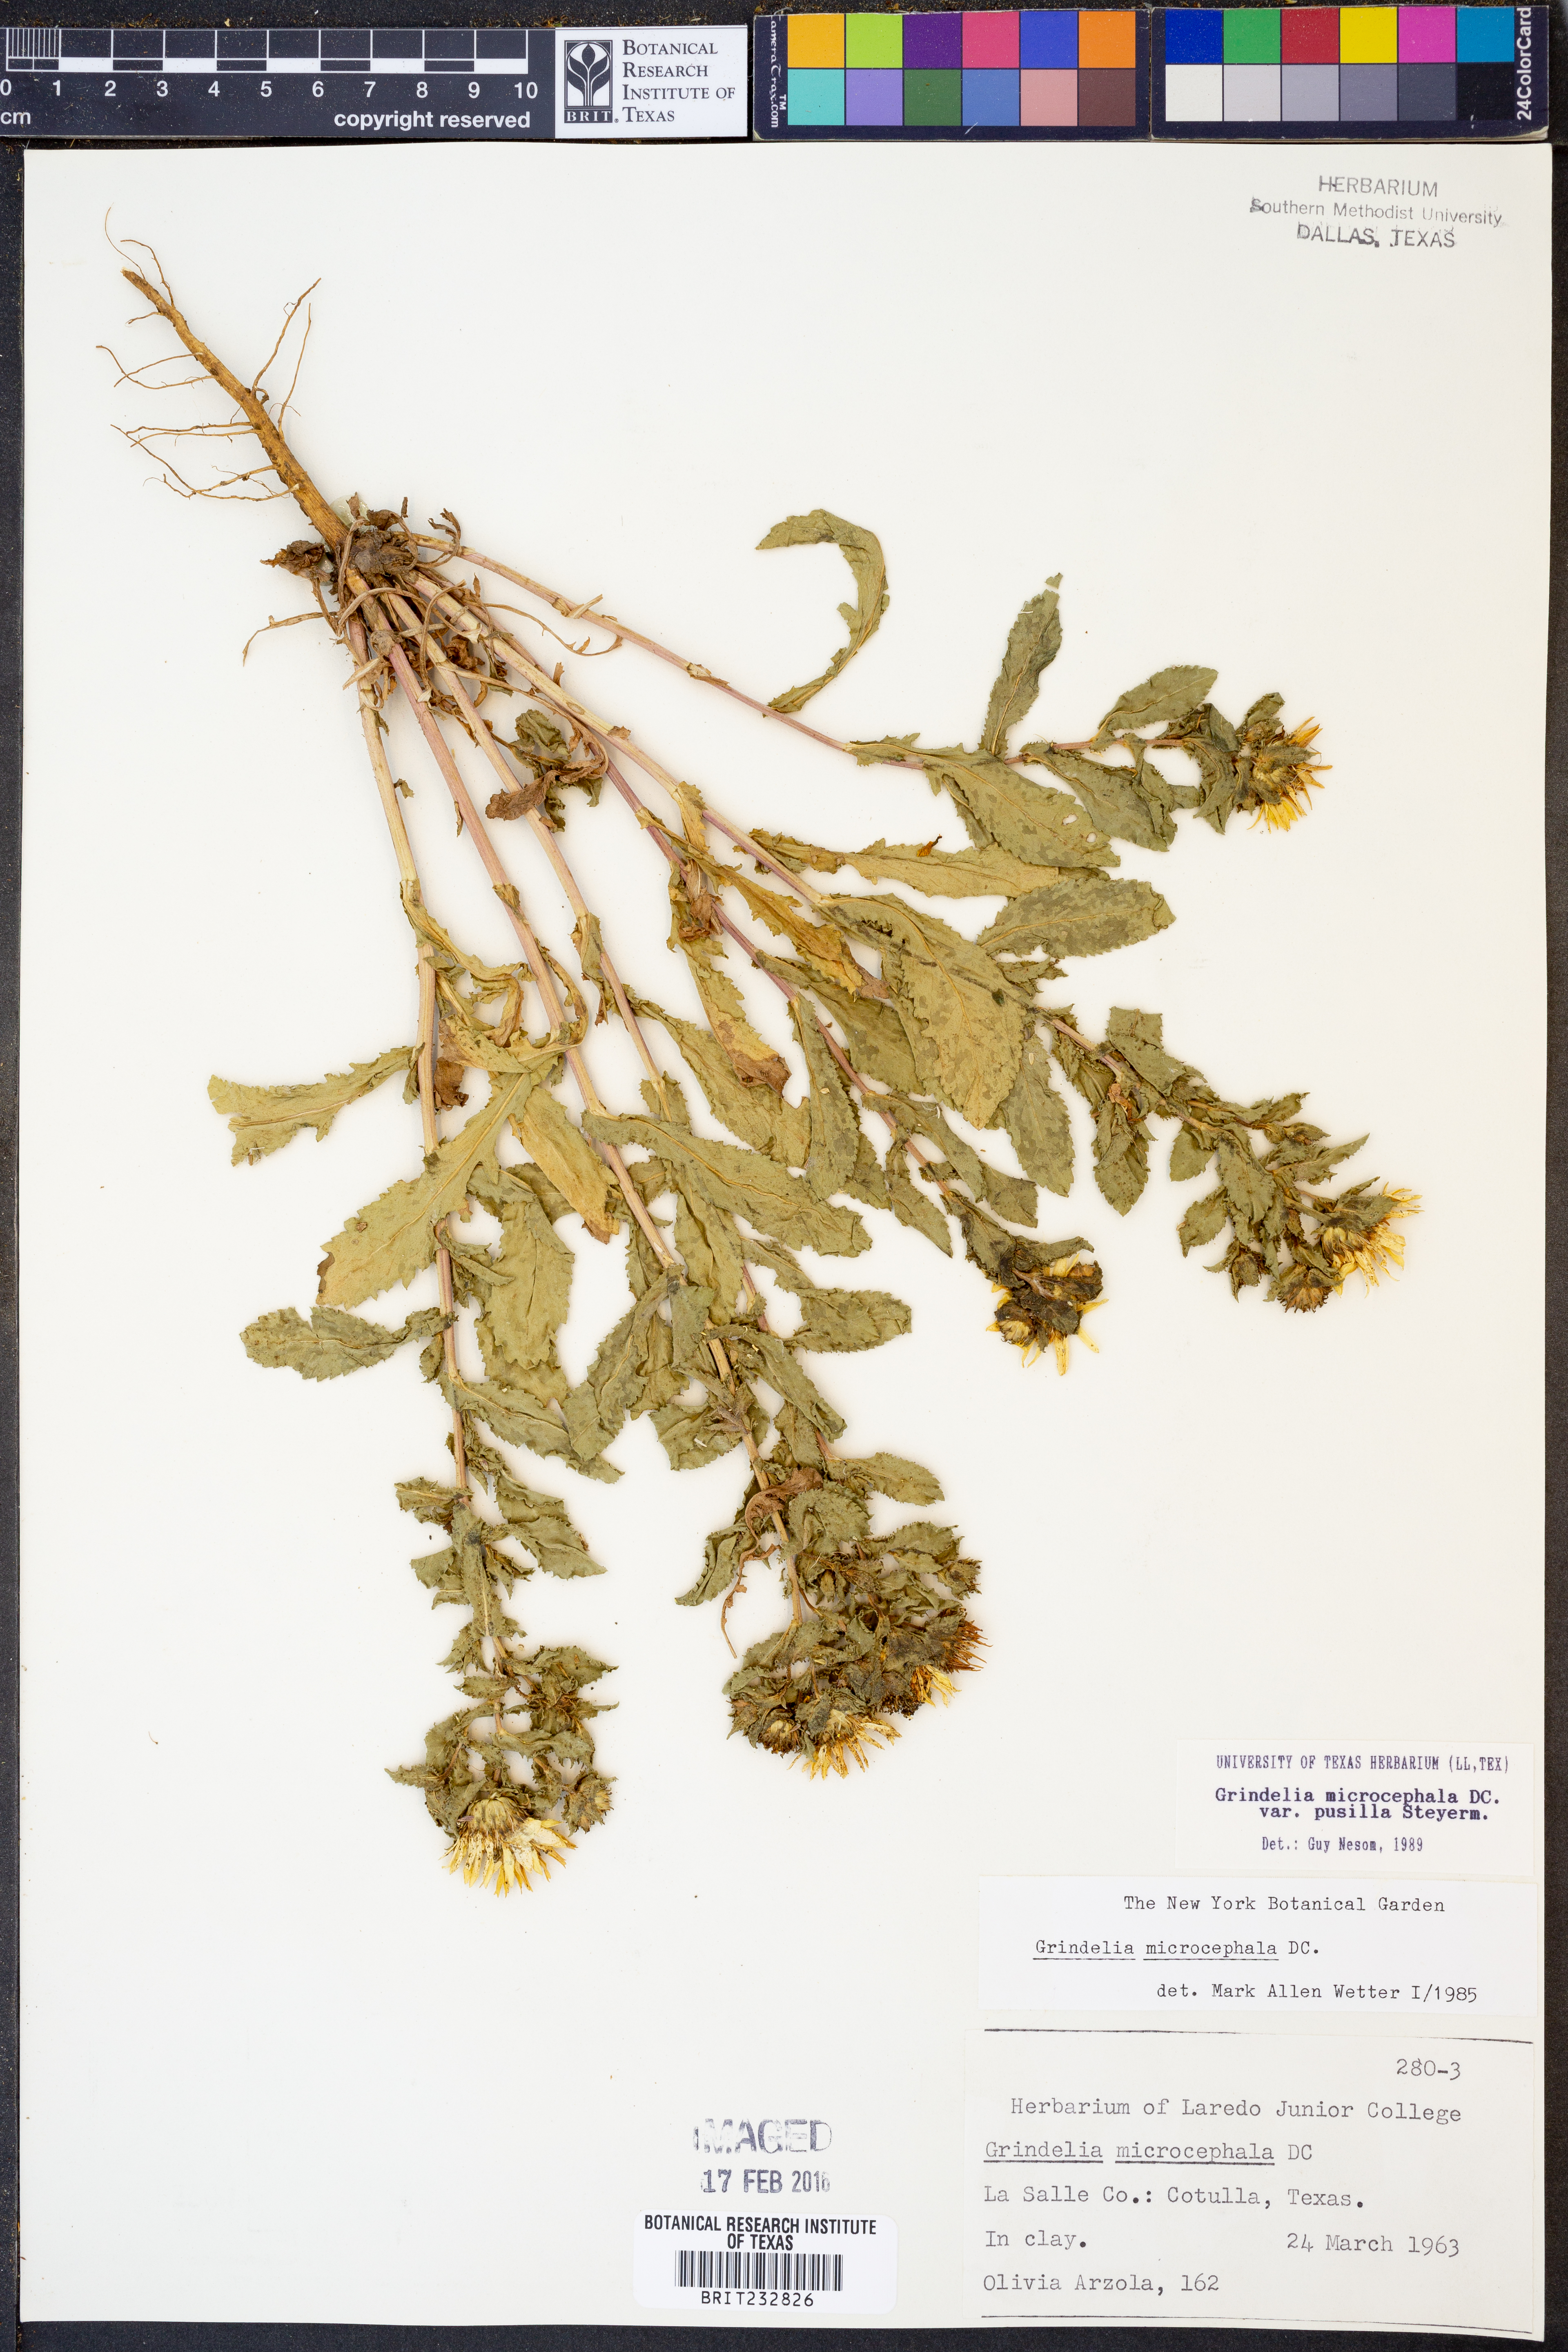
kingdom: Plantae
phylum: Tracheophyta
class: Magnoliopsida
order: Asterales
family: Asteraceae
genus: Grindelia
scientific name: Grindelia pusilla
